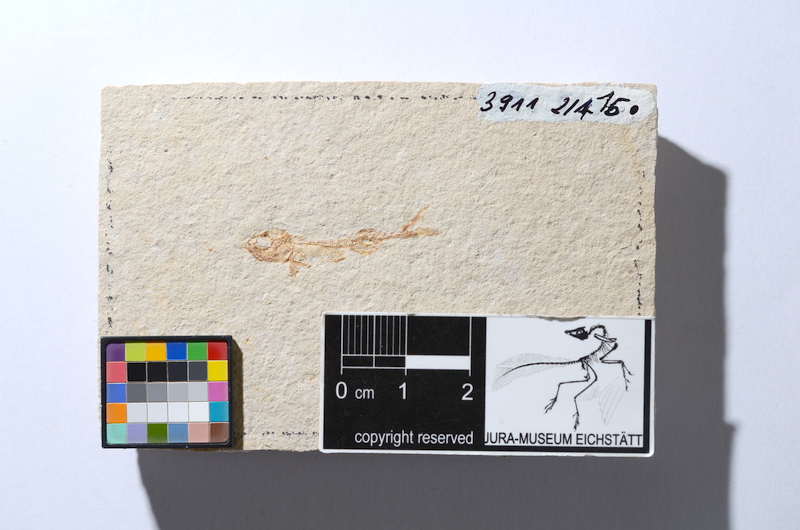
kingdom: Animalia
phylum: Chordata
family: Allothrissopidae
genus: Allothrissops
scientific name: Allothrissops mesogaster
